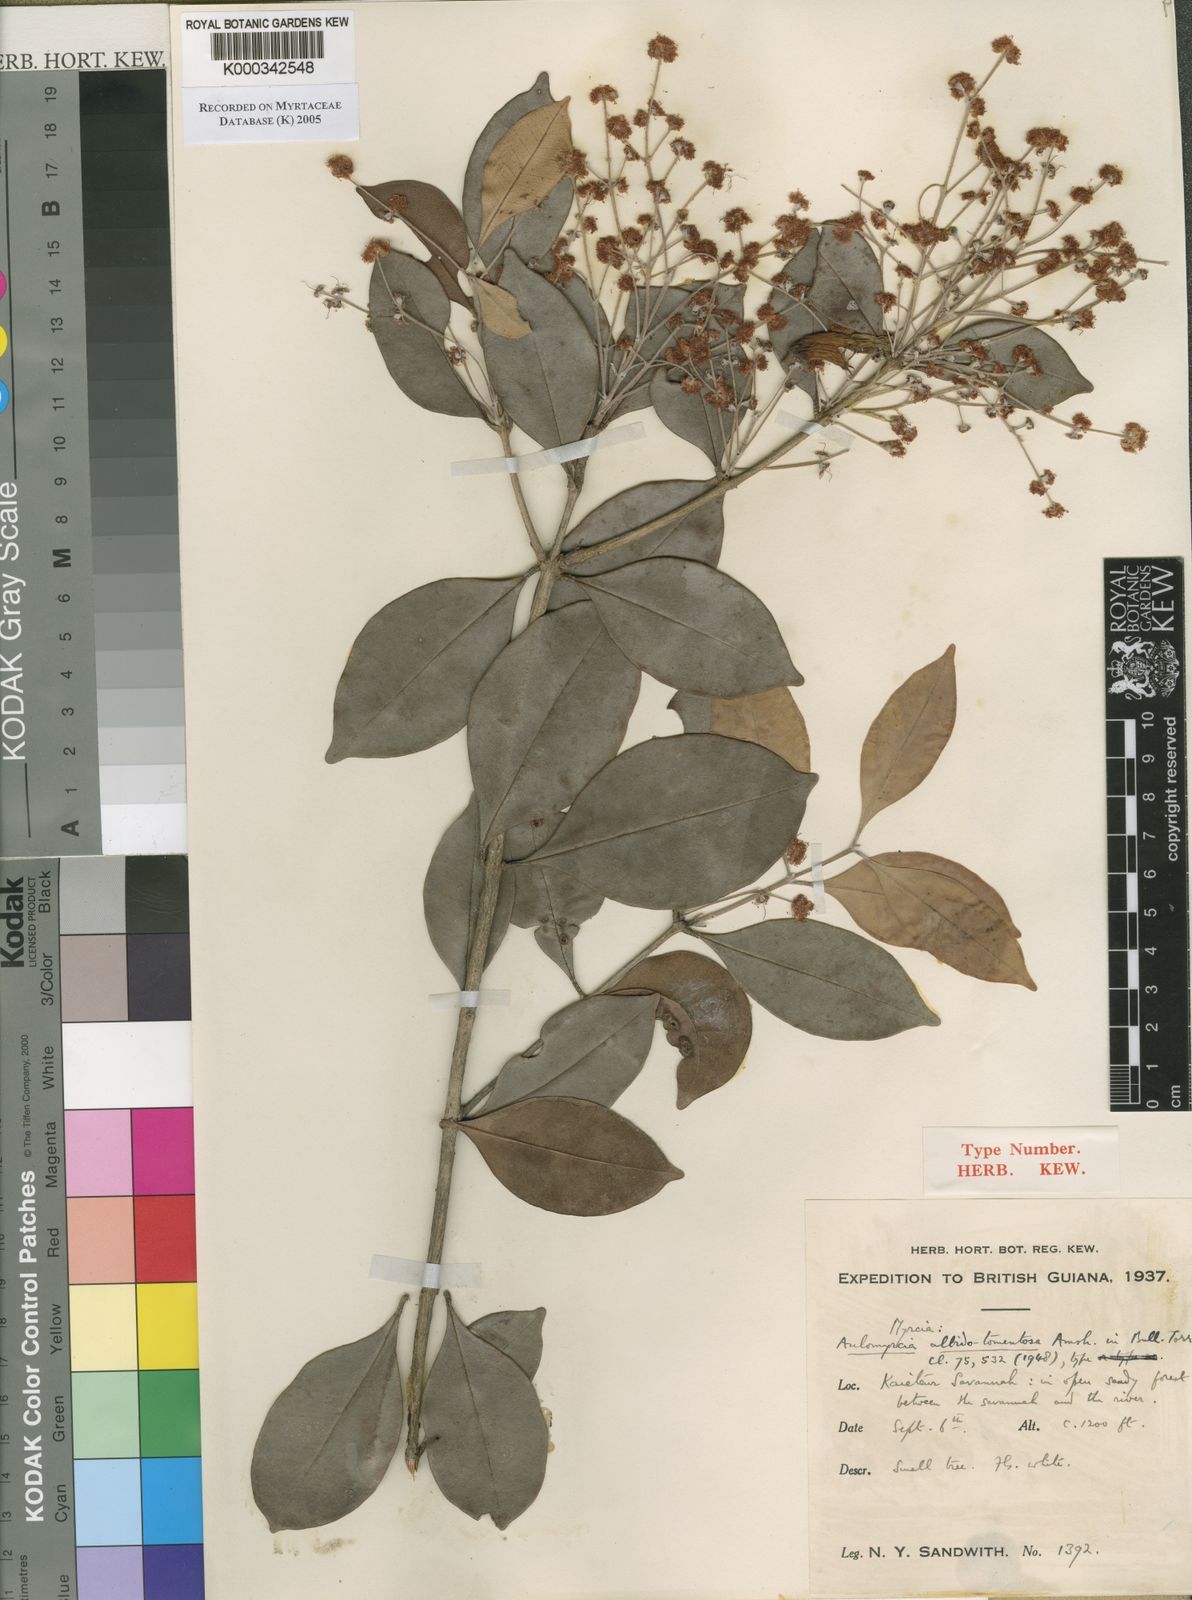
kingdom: Plantae
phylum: Tracheophyta
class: Magnoliopsida
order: Myrtales
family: Myrtaceae
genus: Myrcia
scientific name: Myrcia albidotomentosa
